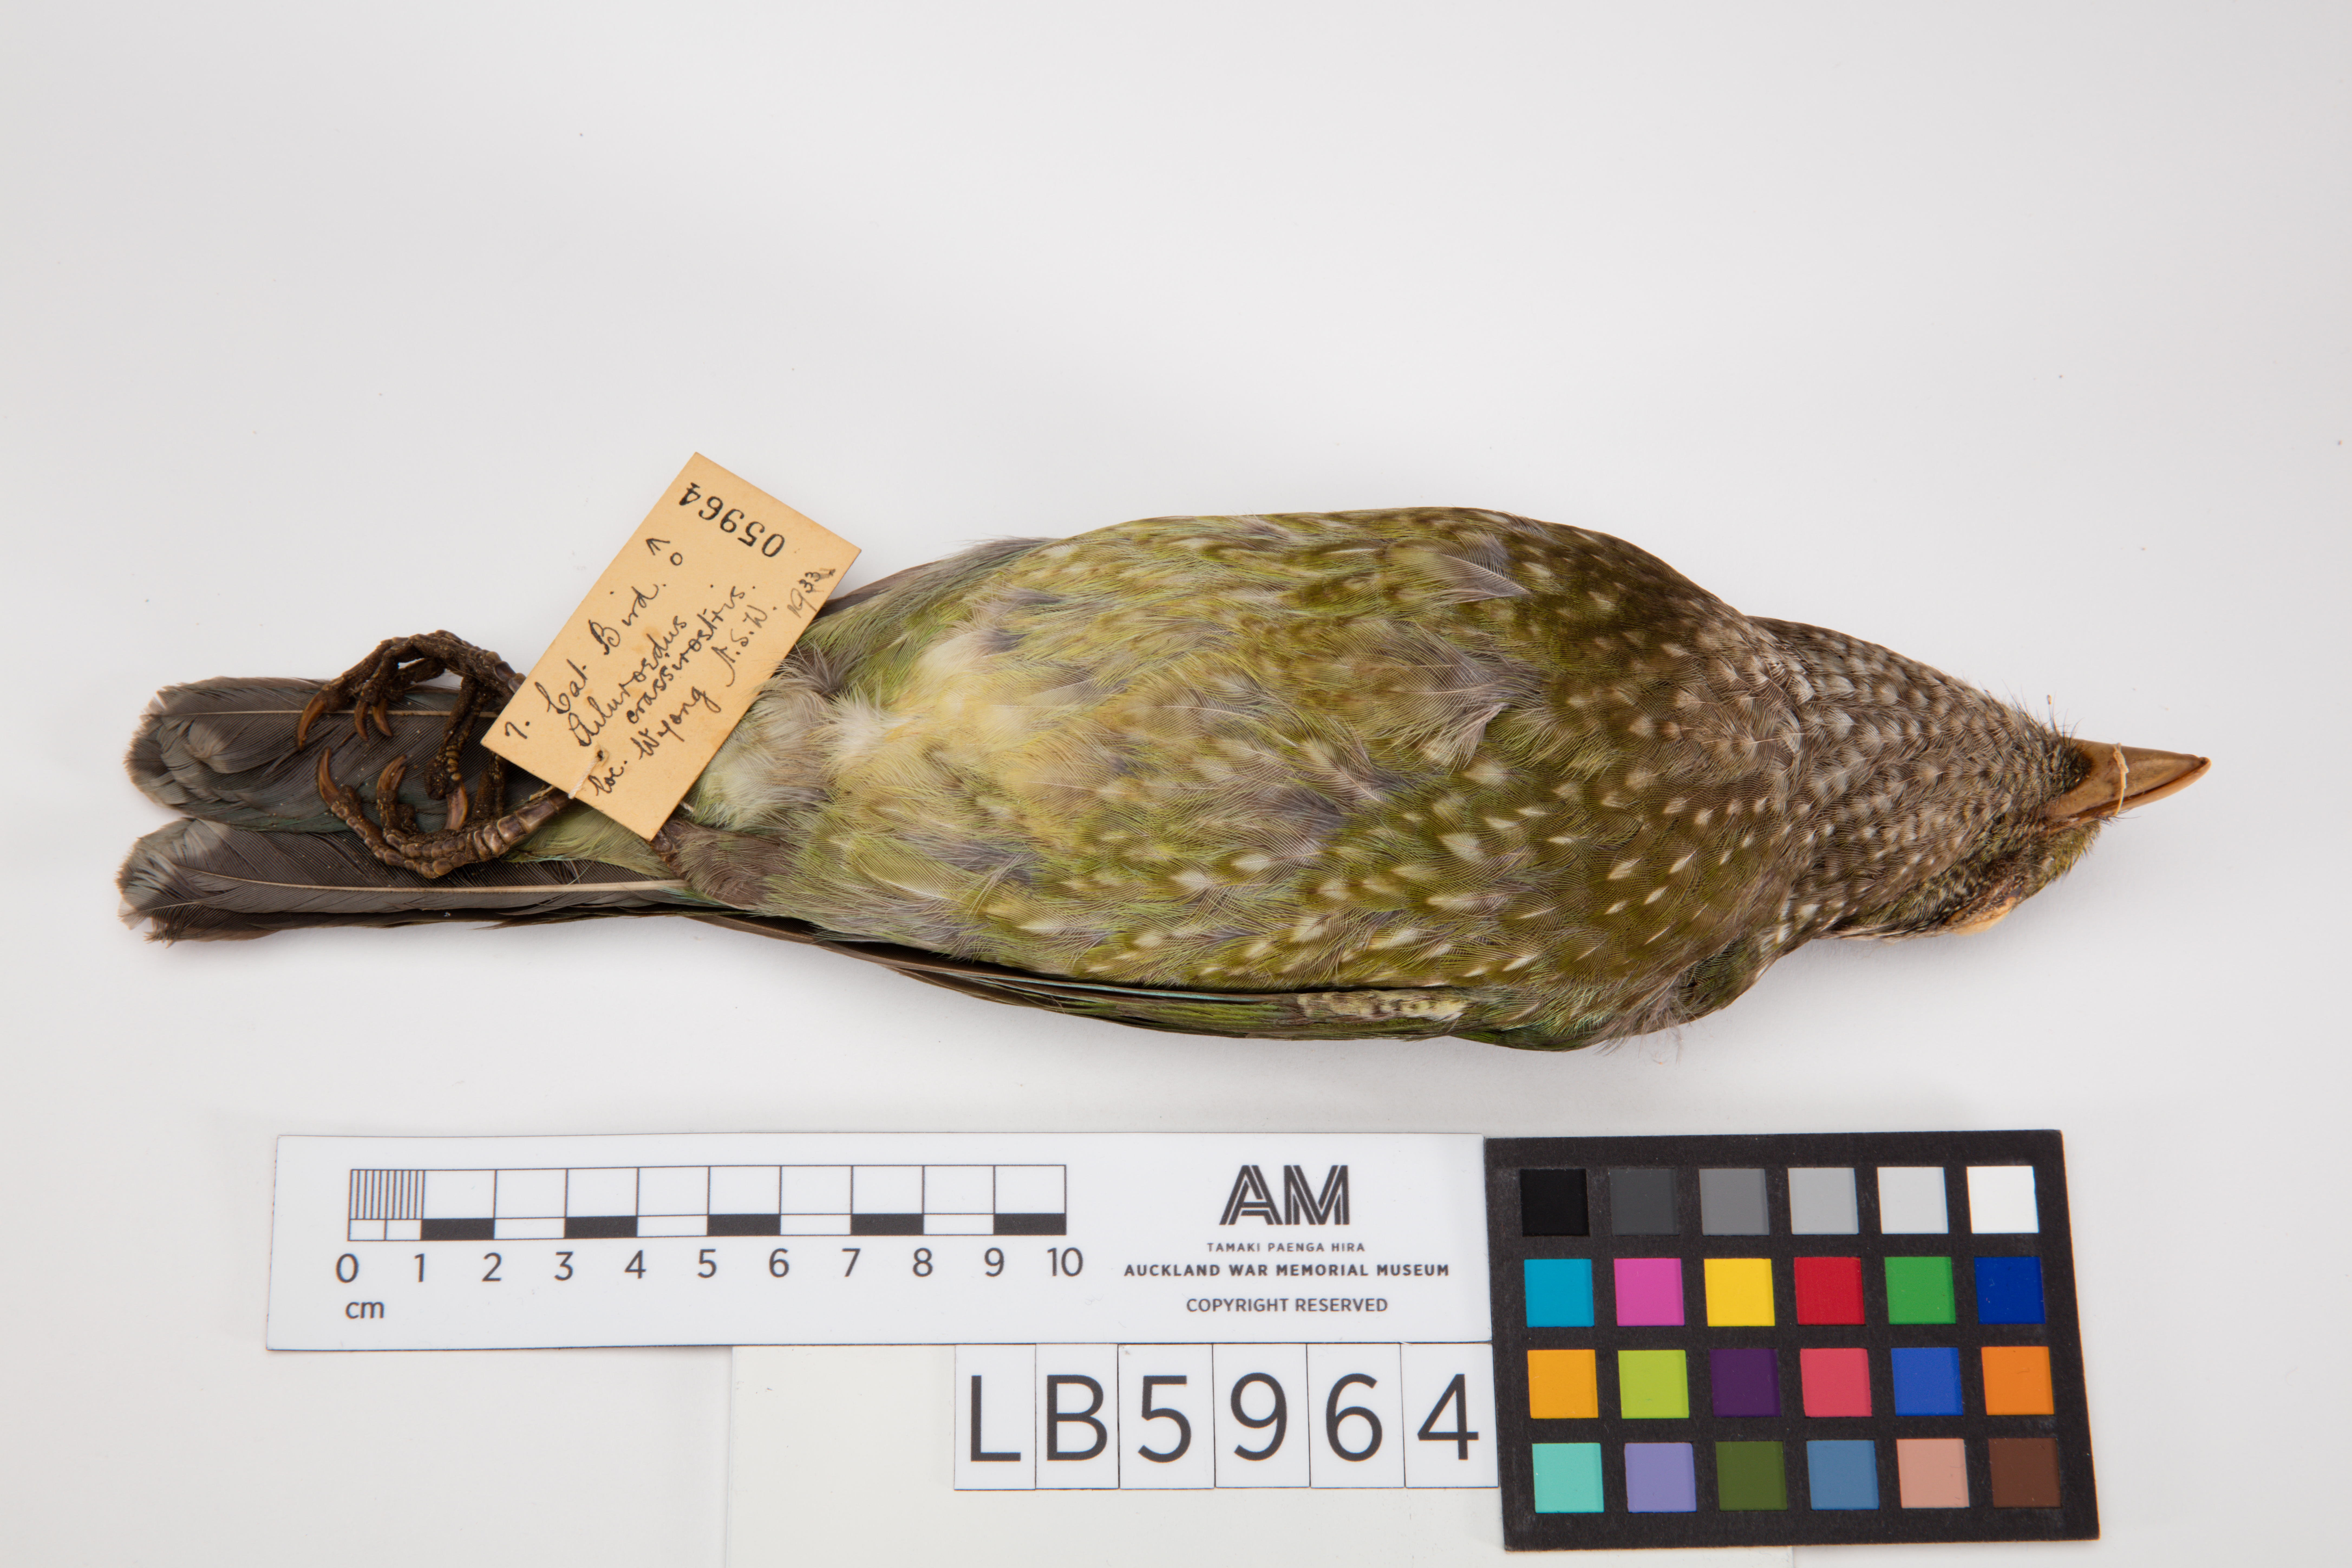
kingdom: Animalia
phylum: Chordata
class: Aves
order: Passeriformes
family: Ptilonorhynchidae
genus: Ailuroedus
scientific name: Ailuroedus crassirostris
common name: Green catbird
